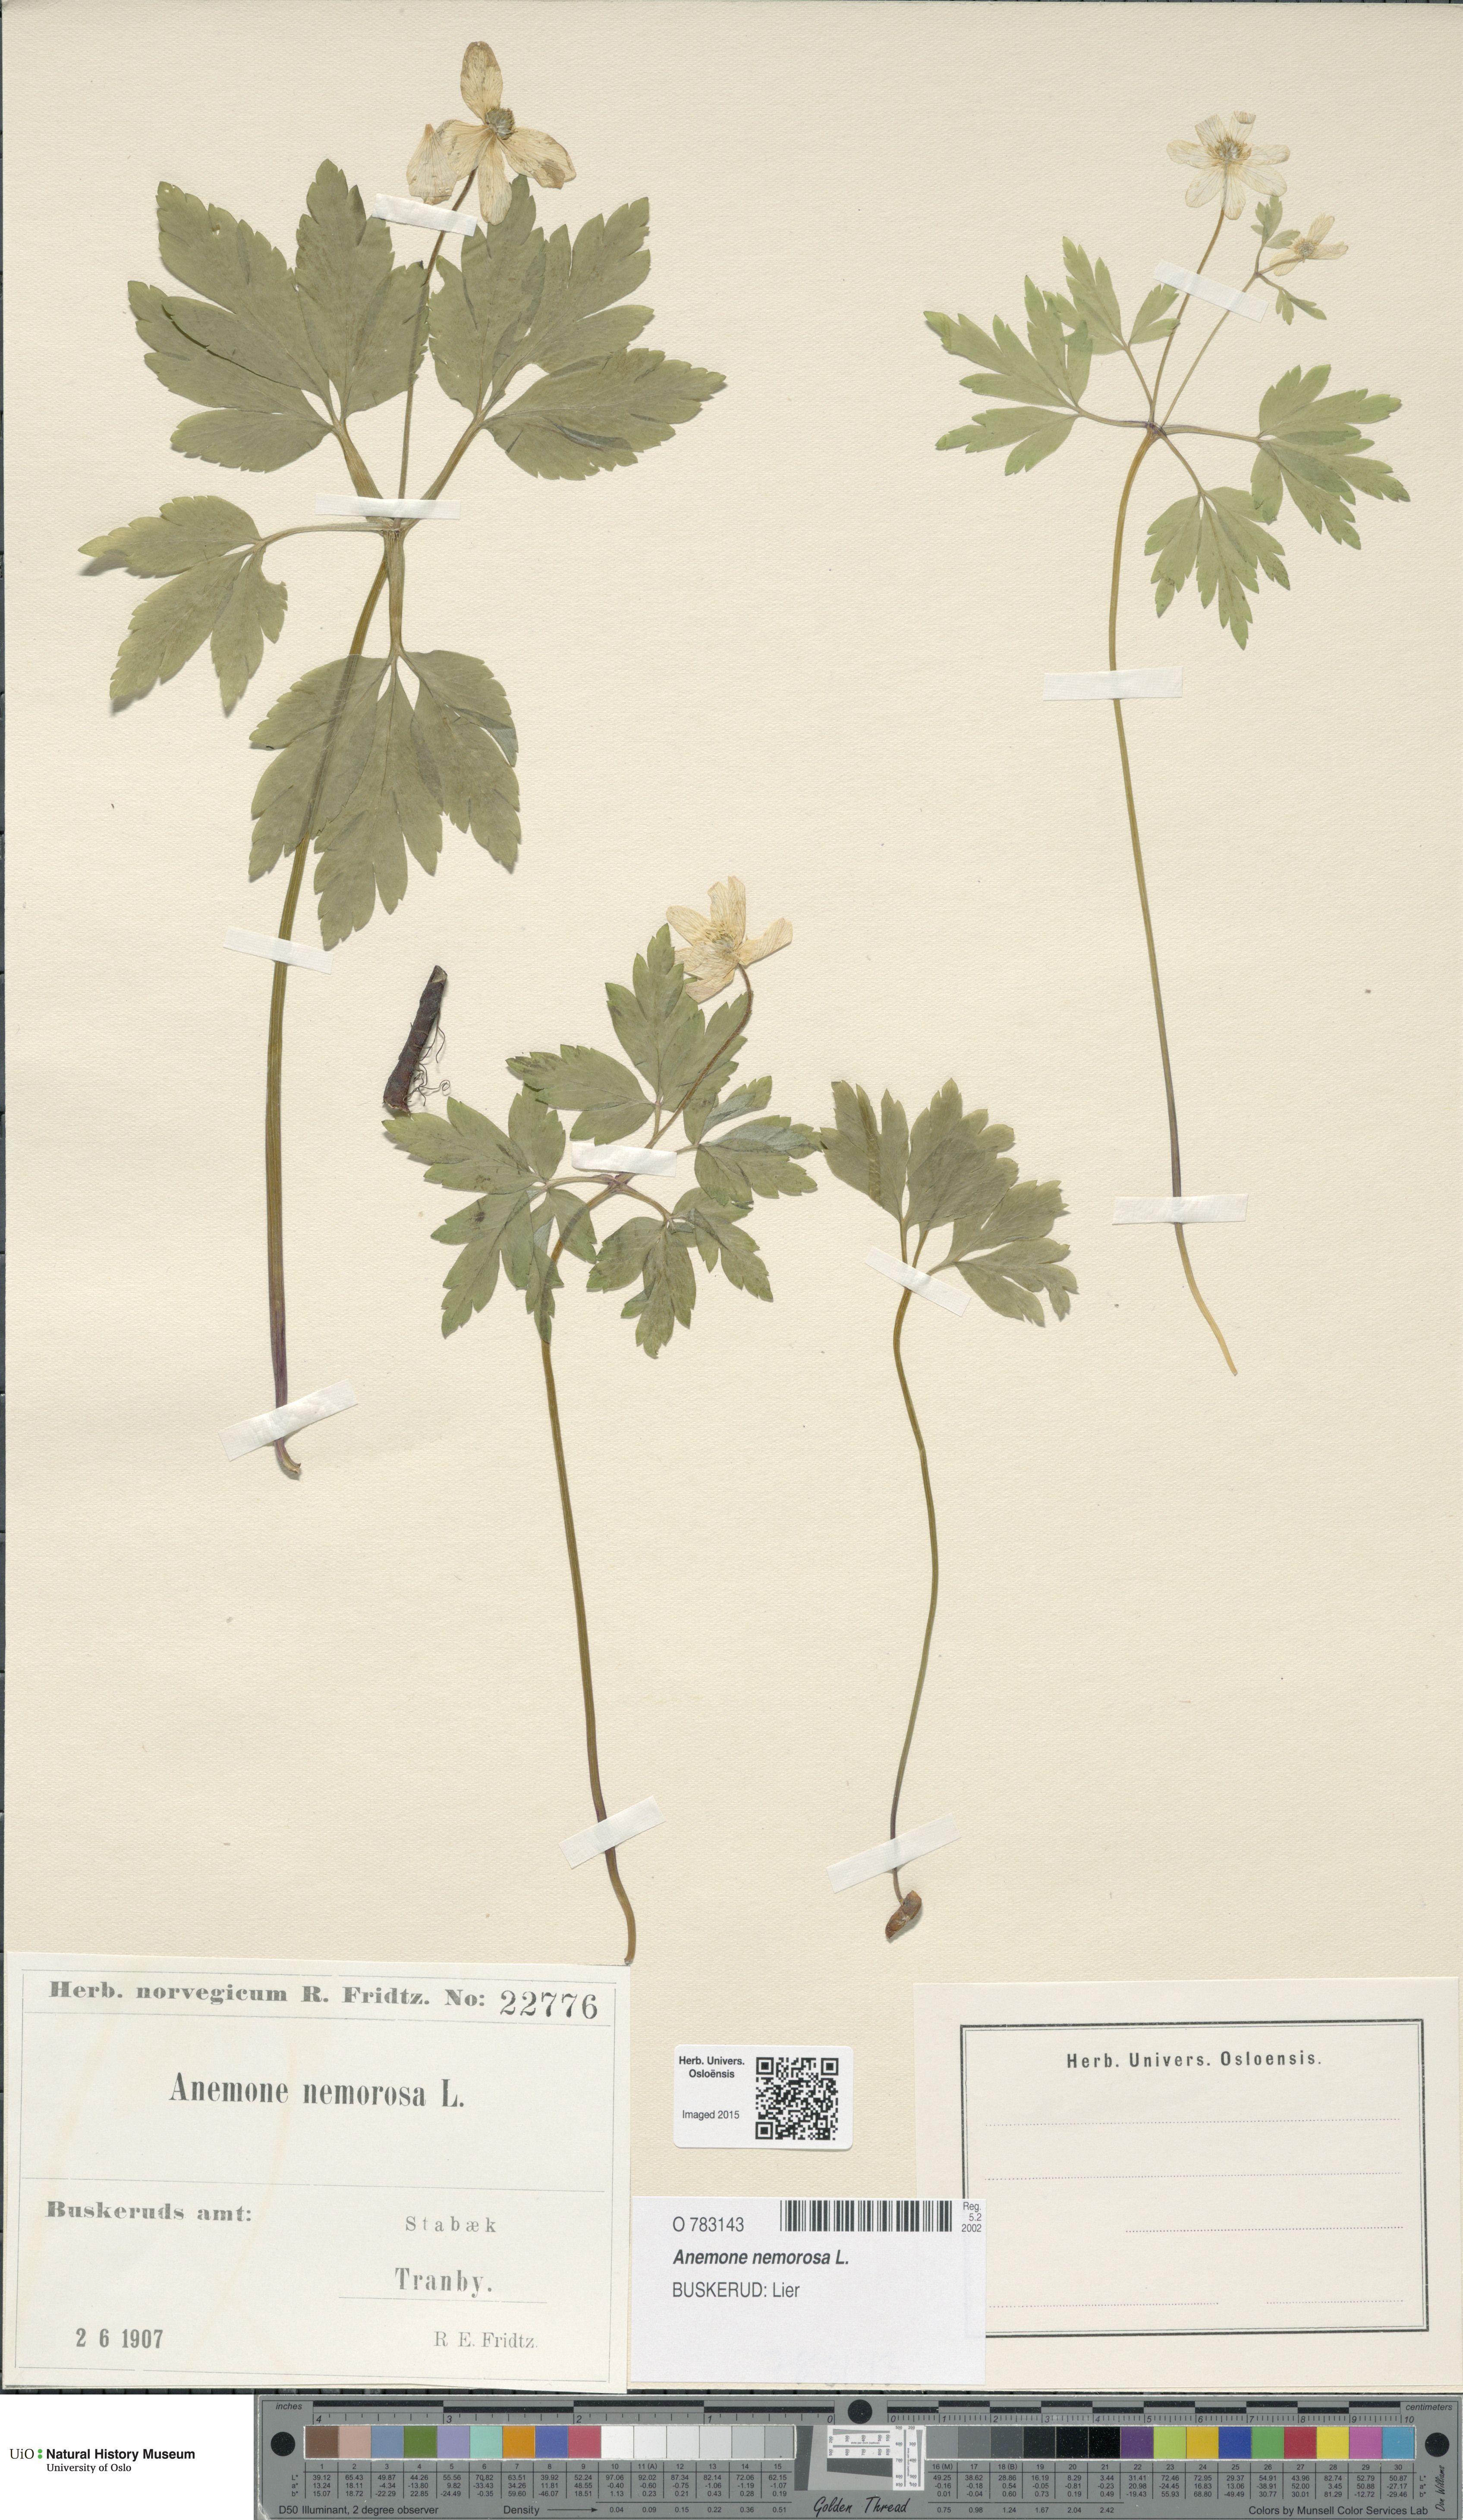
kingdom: Plantae
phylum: Tracheophyta
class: Magnoliopsida
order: Ranunculales
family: Ranunculaceae
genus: Anemone
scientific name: Anemone nemorosa
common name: Wood anemone
